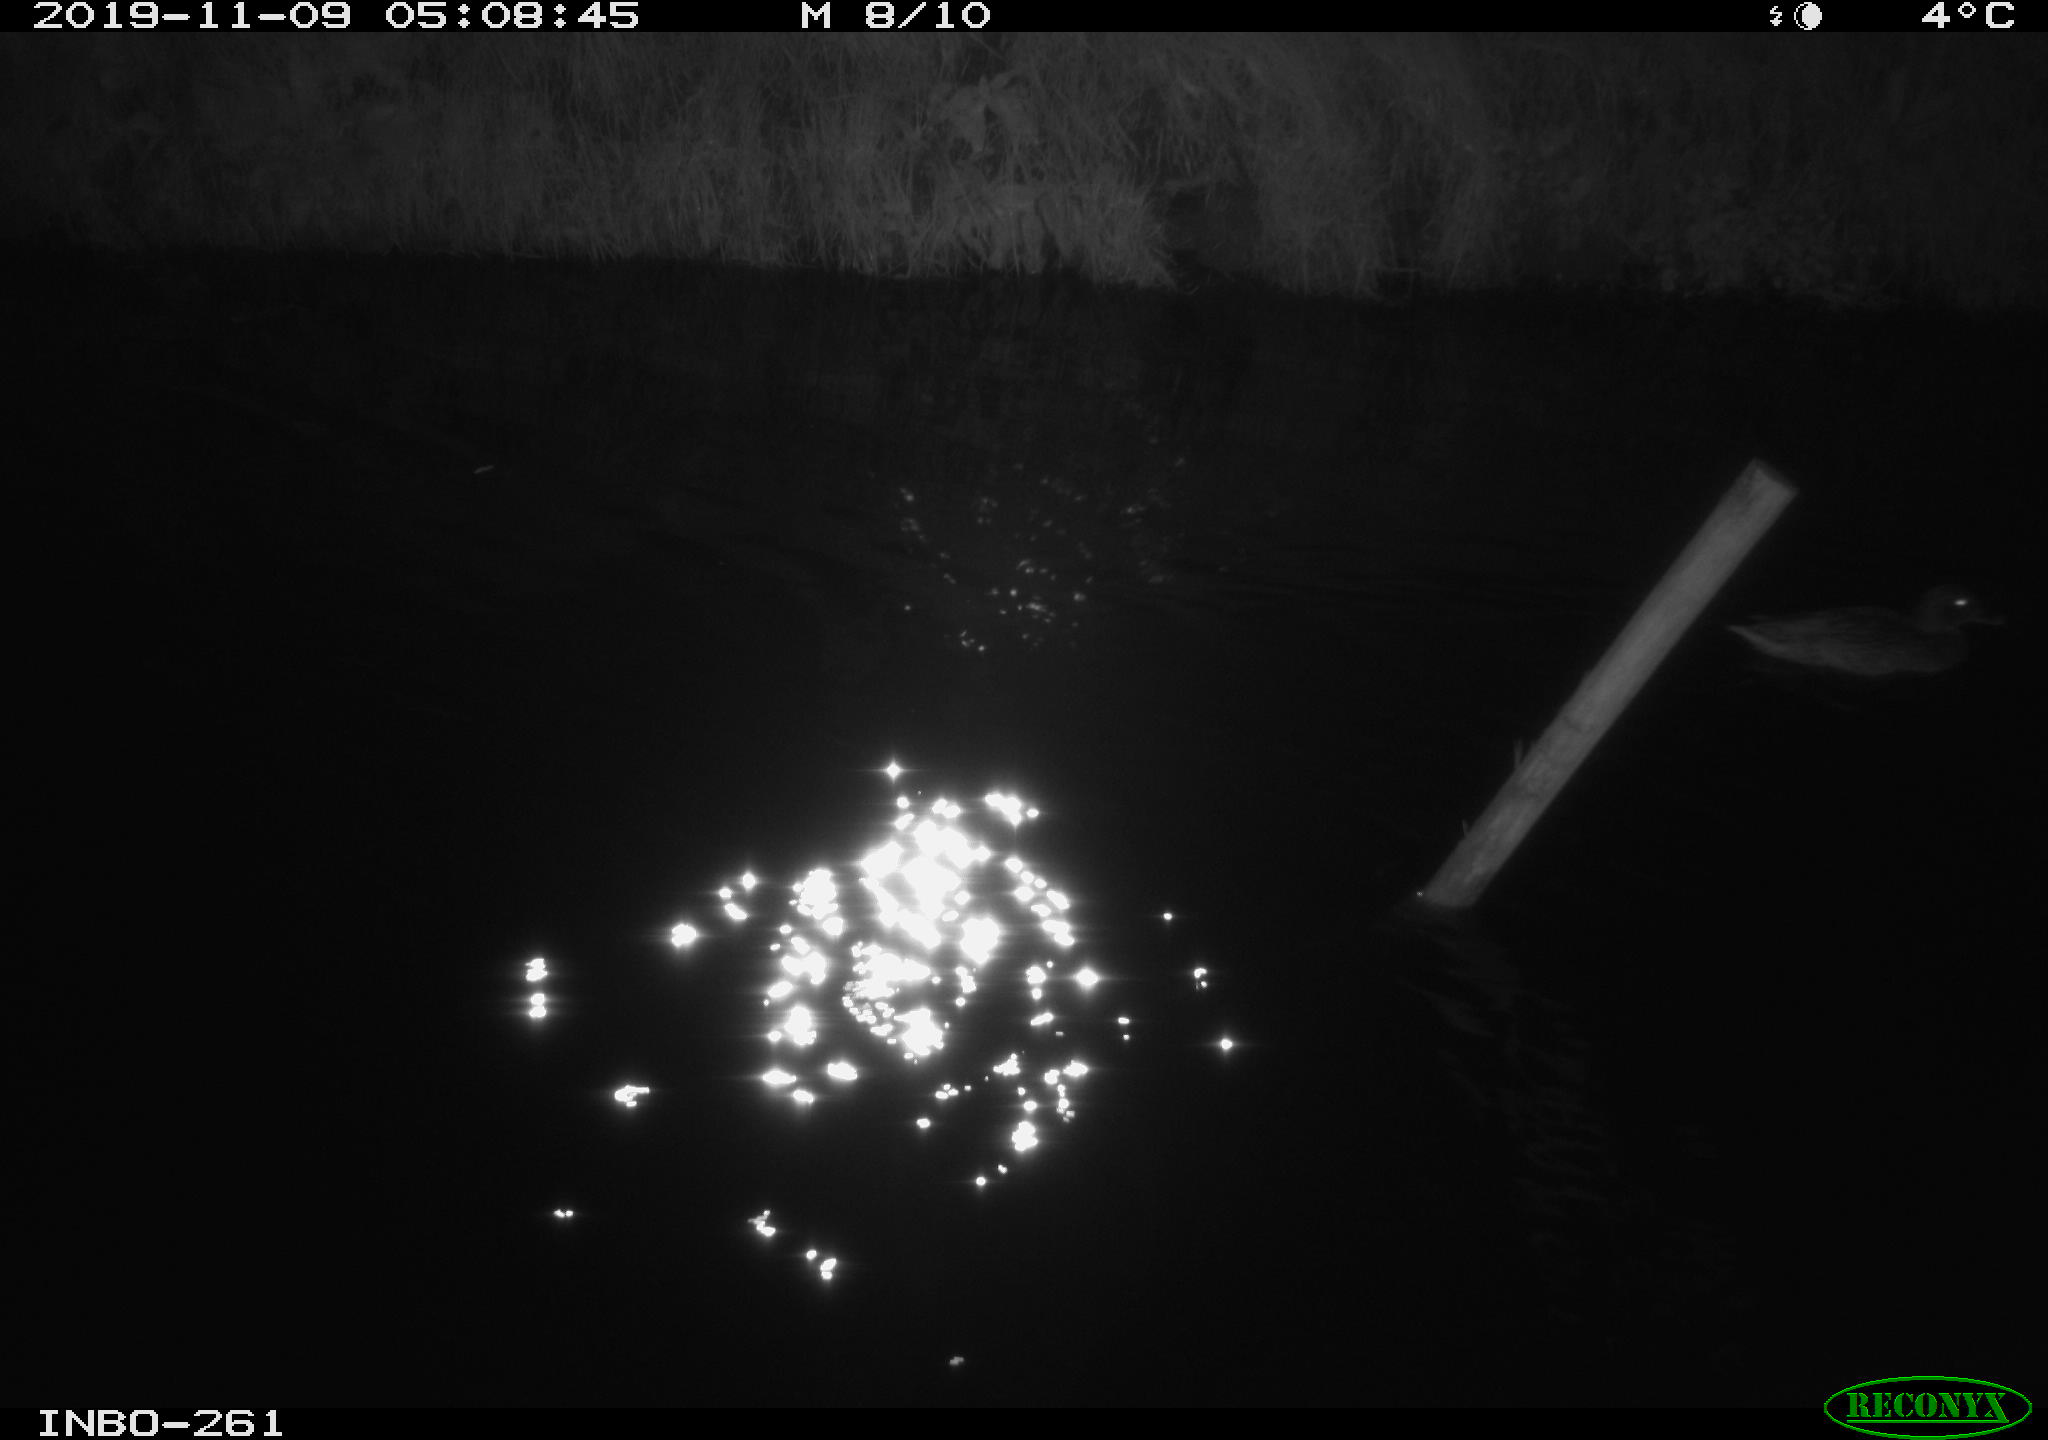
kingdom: Animalia
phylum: Chordata
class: Aves
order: Anseriformes
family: Anatidae
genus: Anas
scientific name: Anas platyrhynchos
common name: Mallard
